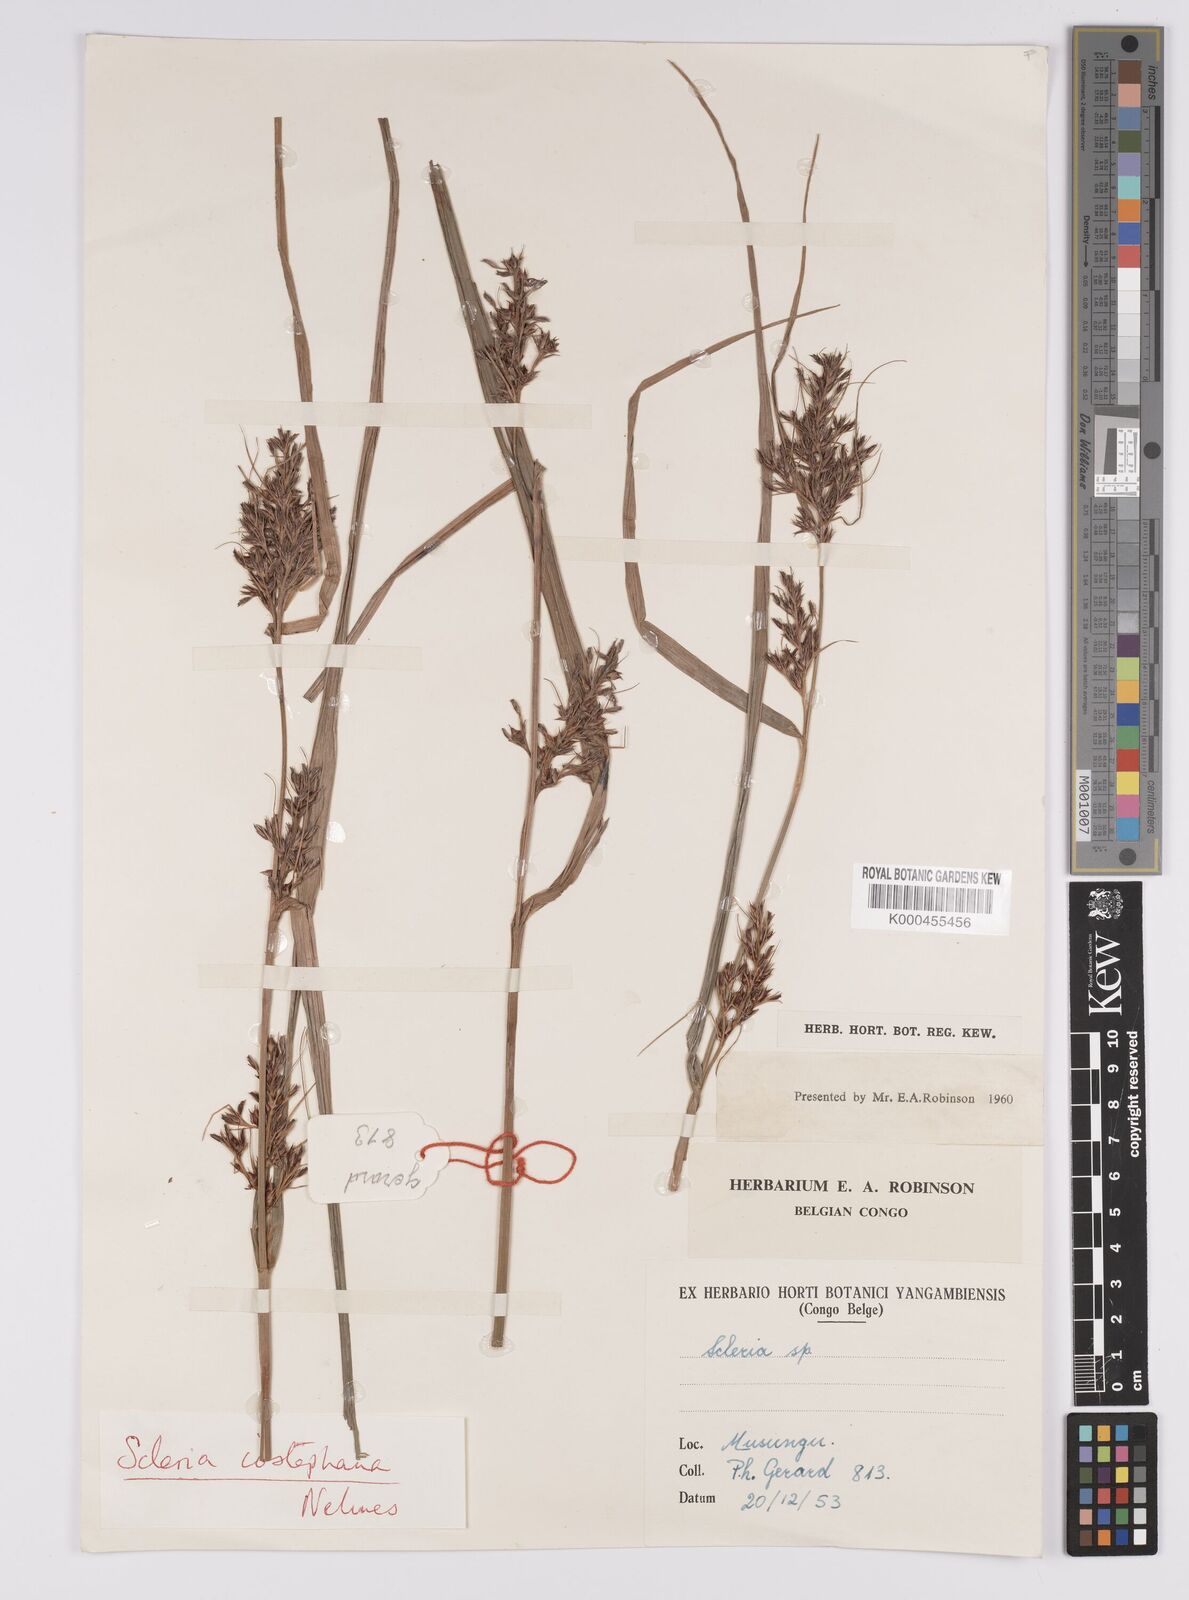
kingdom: Plantae
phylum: Tracheophyta
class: Liliopsida
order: Poales
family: Cyperaceae
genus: Scleria
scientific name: Scleria iostephana
